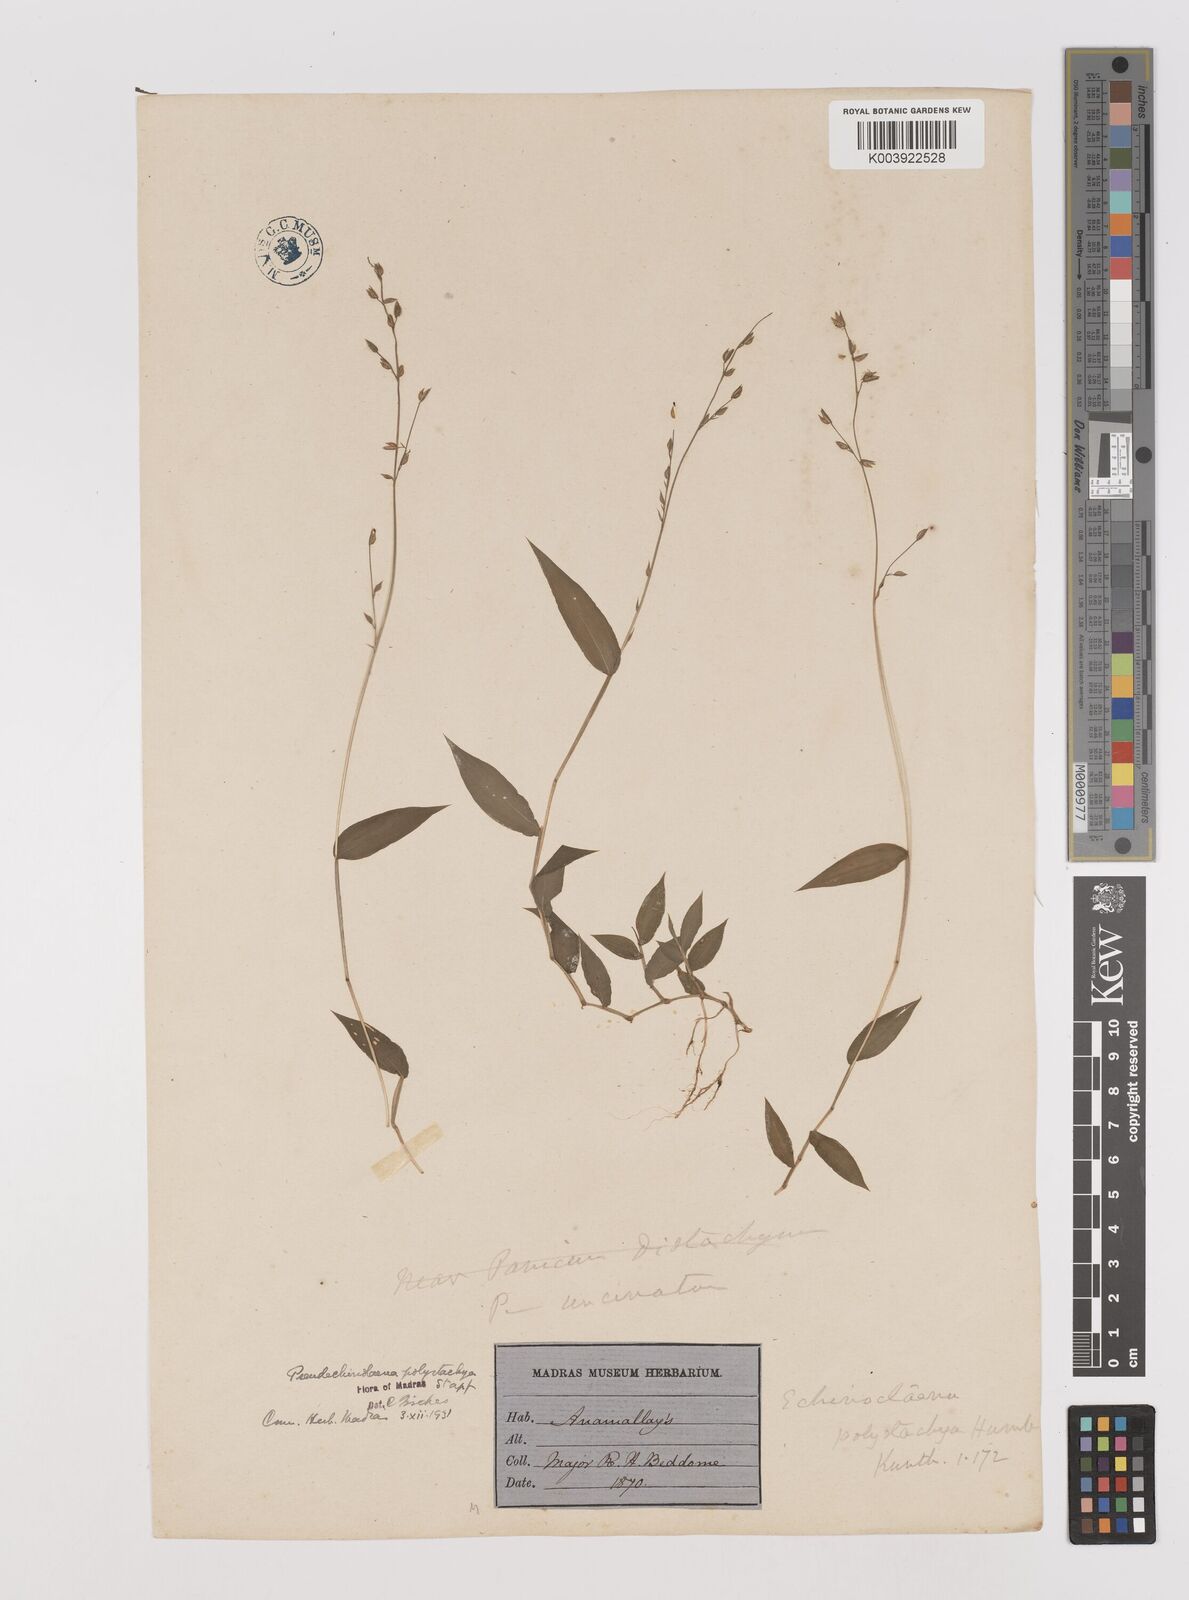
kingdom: Plantae
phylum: Tracheophyta
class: Liliopsida
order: Poales
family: Poaceae
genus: Pseudechinolaena
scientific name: Pseudechinolaena polystachya
